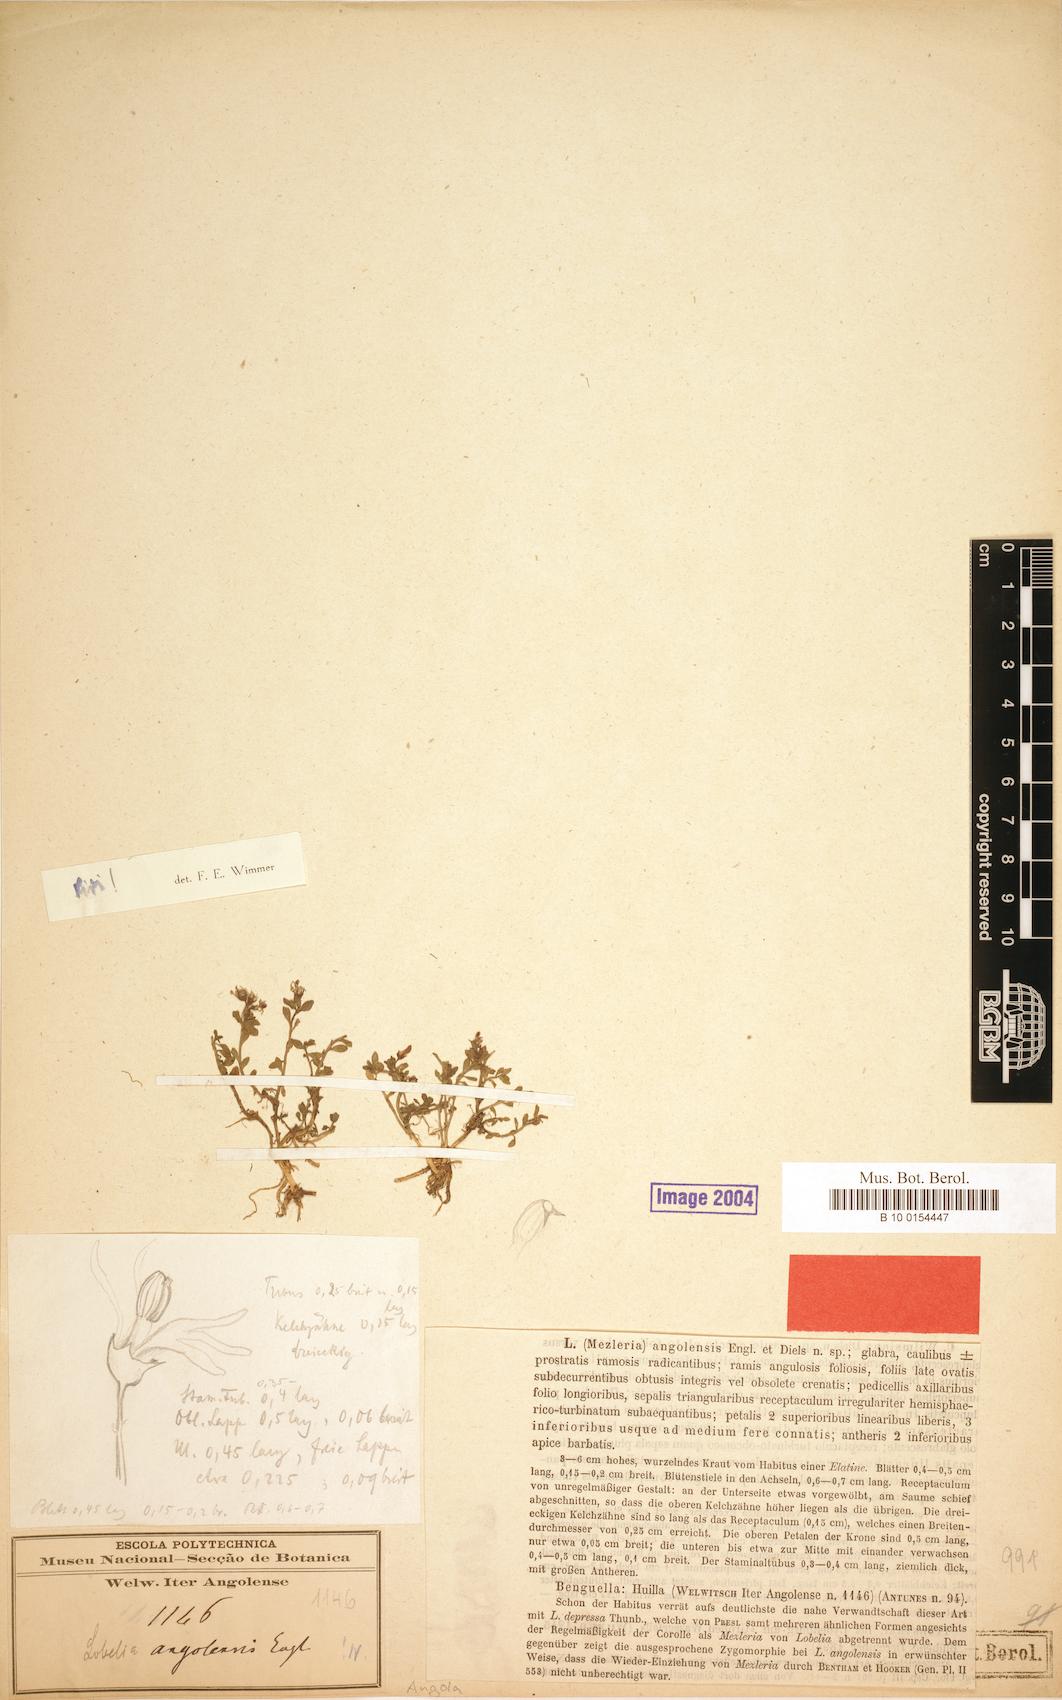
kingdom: Plantae
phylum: Tracheophyta
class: Magnoliopsida
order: Asterales
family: Campanulaceae
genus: Lobelia
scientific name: Lobelia sonderiana
